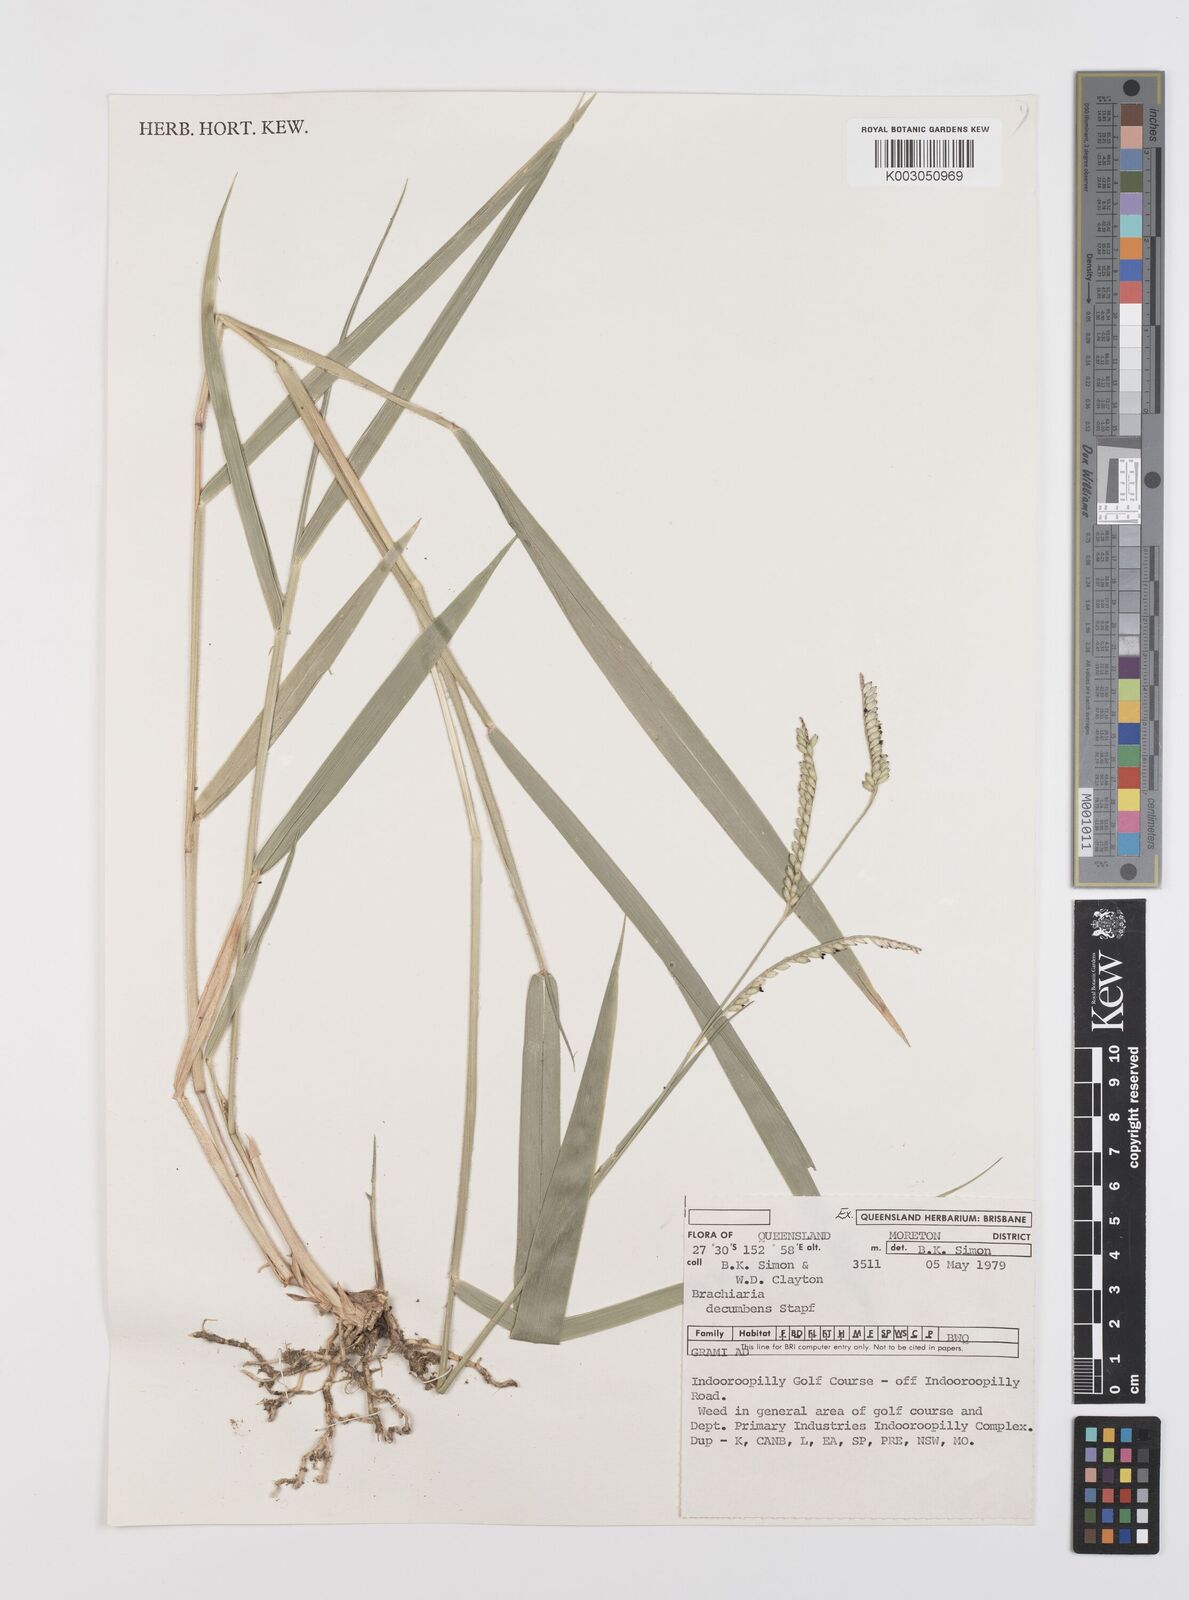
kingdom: Plantae
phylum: Tracheophyta
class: Liliopsida
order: Poales
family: Poaceae
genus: Urochloa
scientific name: Urochloa eminii
